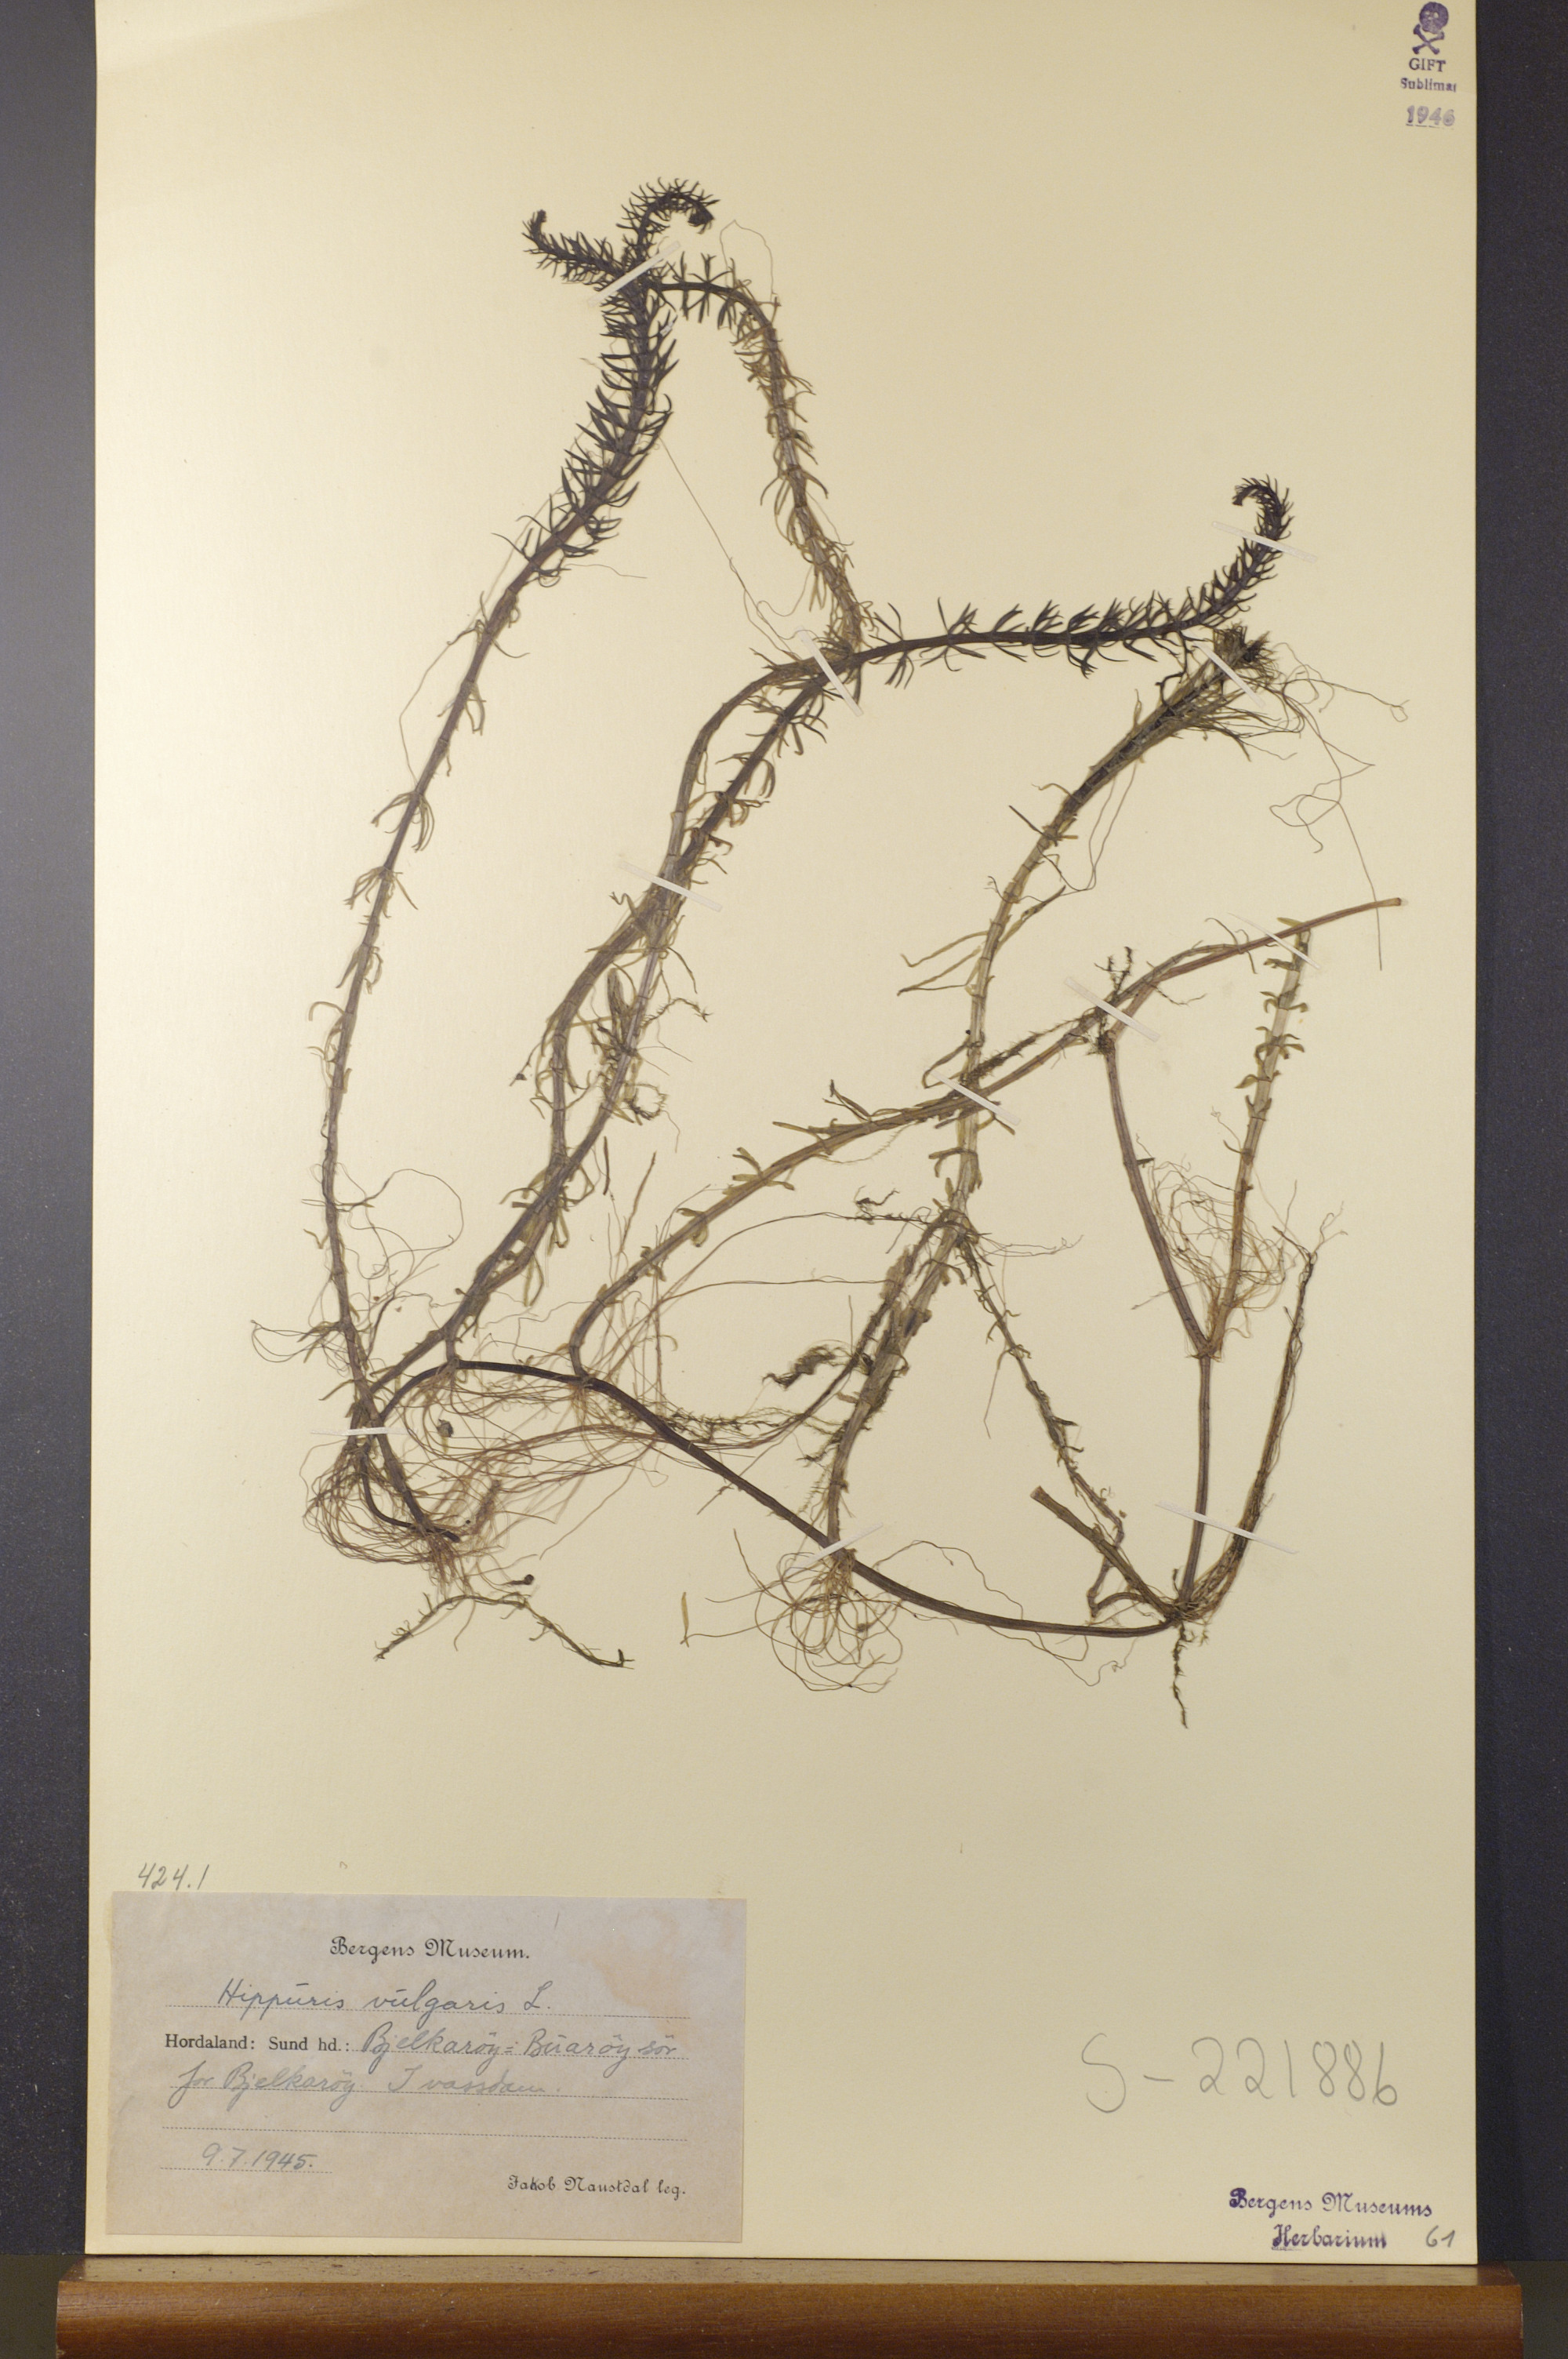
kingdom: Plantae
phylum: Tracheophyta
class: Magnoliopsida
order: Lamiales
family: Plantaginaceae
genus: Hippuris
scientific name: Hippuris vulgaris
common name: Mare's-tail
